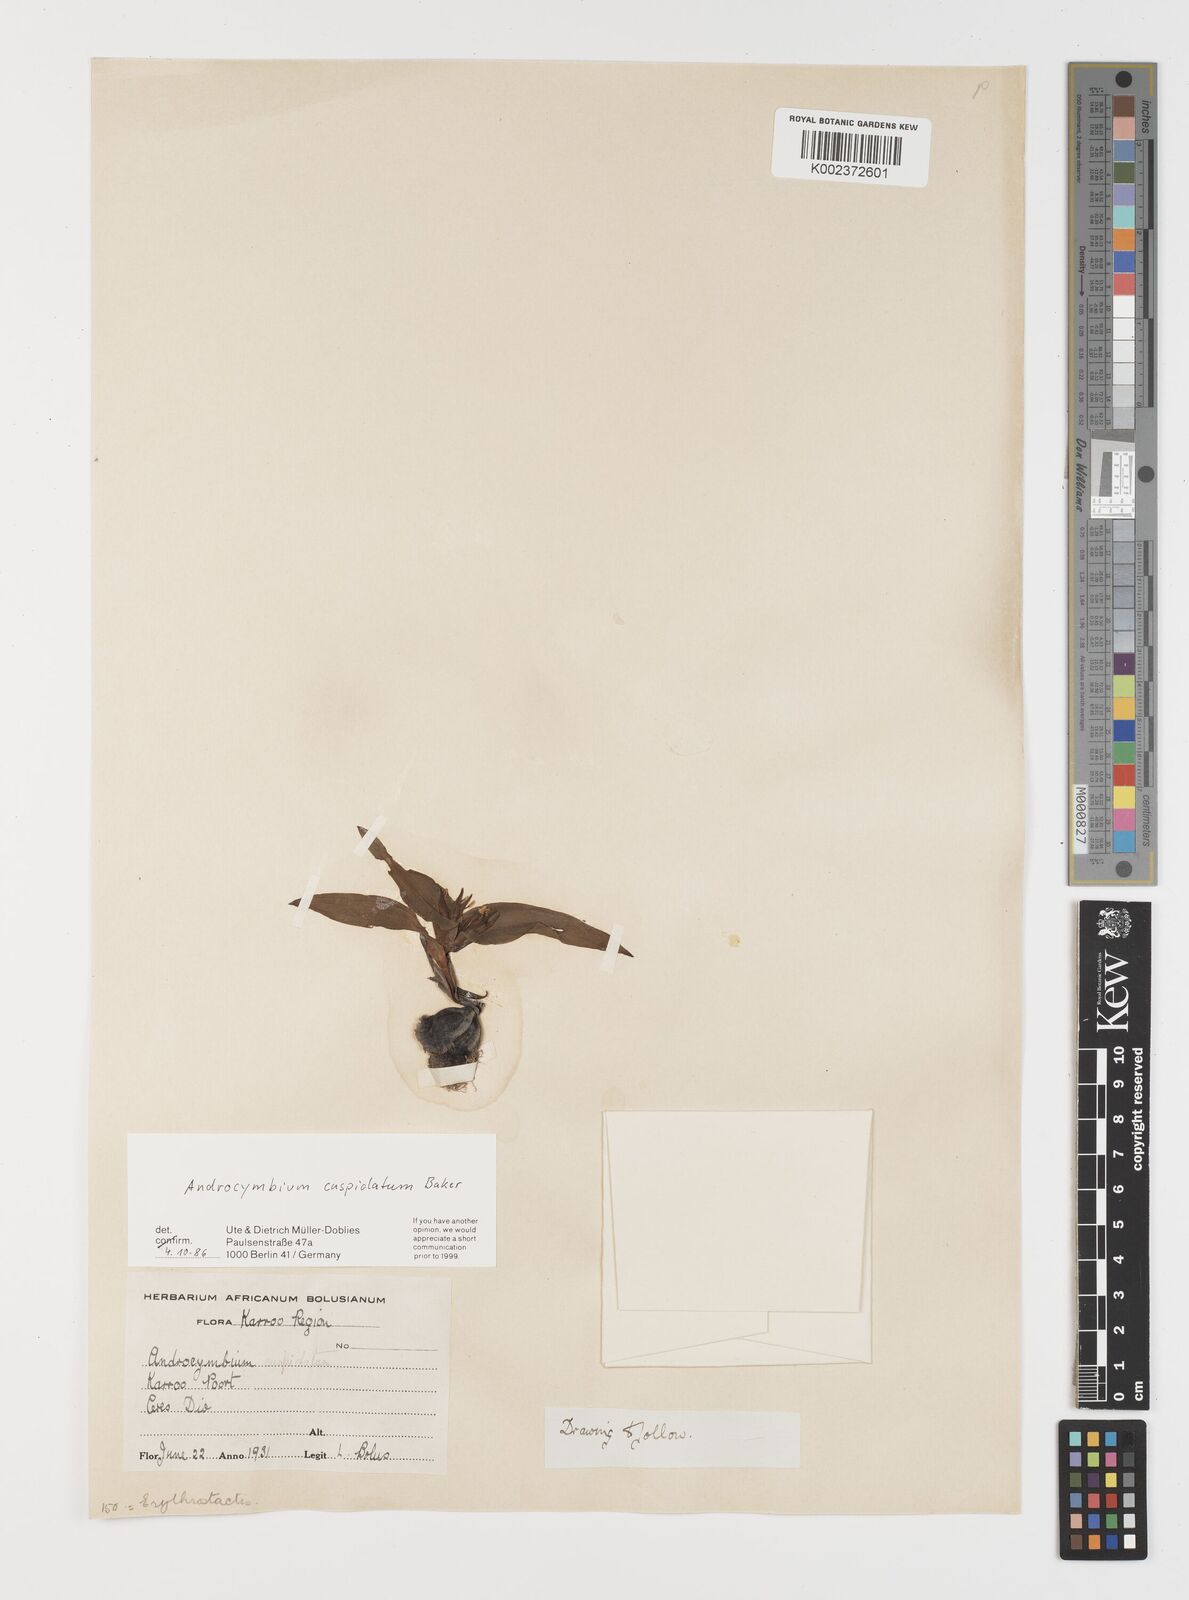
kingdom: Plantae
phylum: Tracheophyta
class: Liliopsida
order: Liliales
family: Colchicaceae
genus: Colchicum
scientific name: Colchicum cuspidatum
